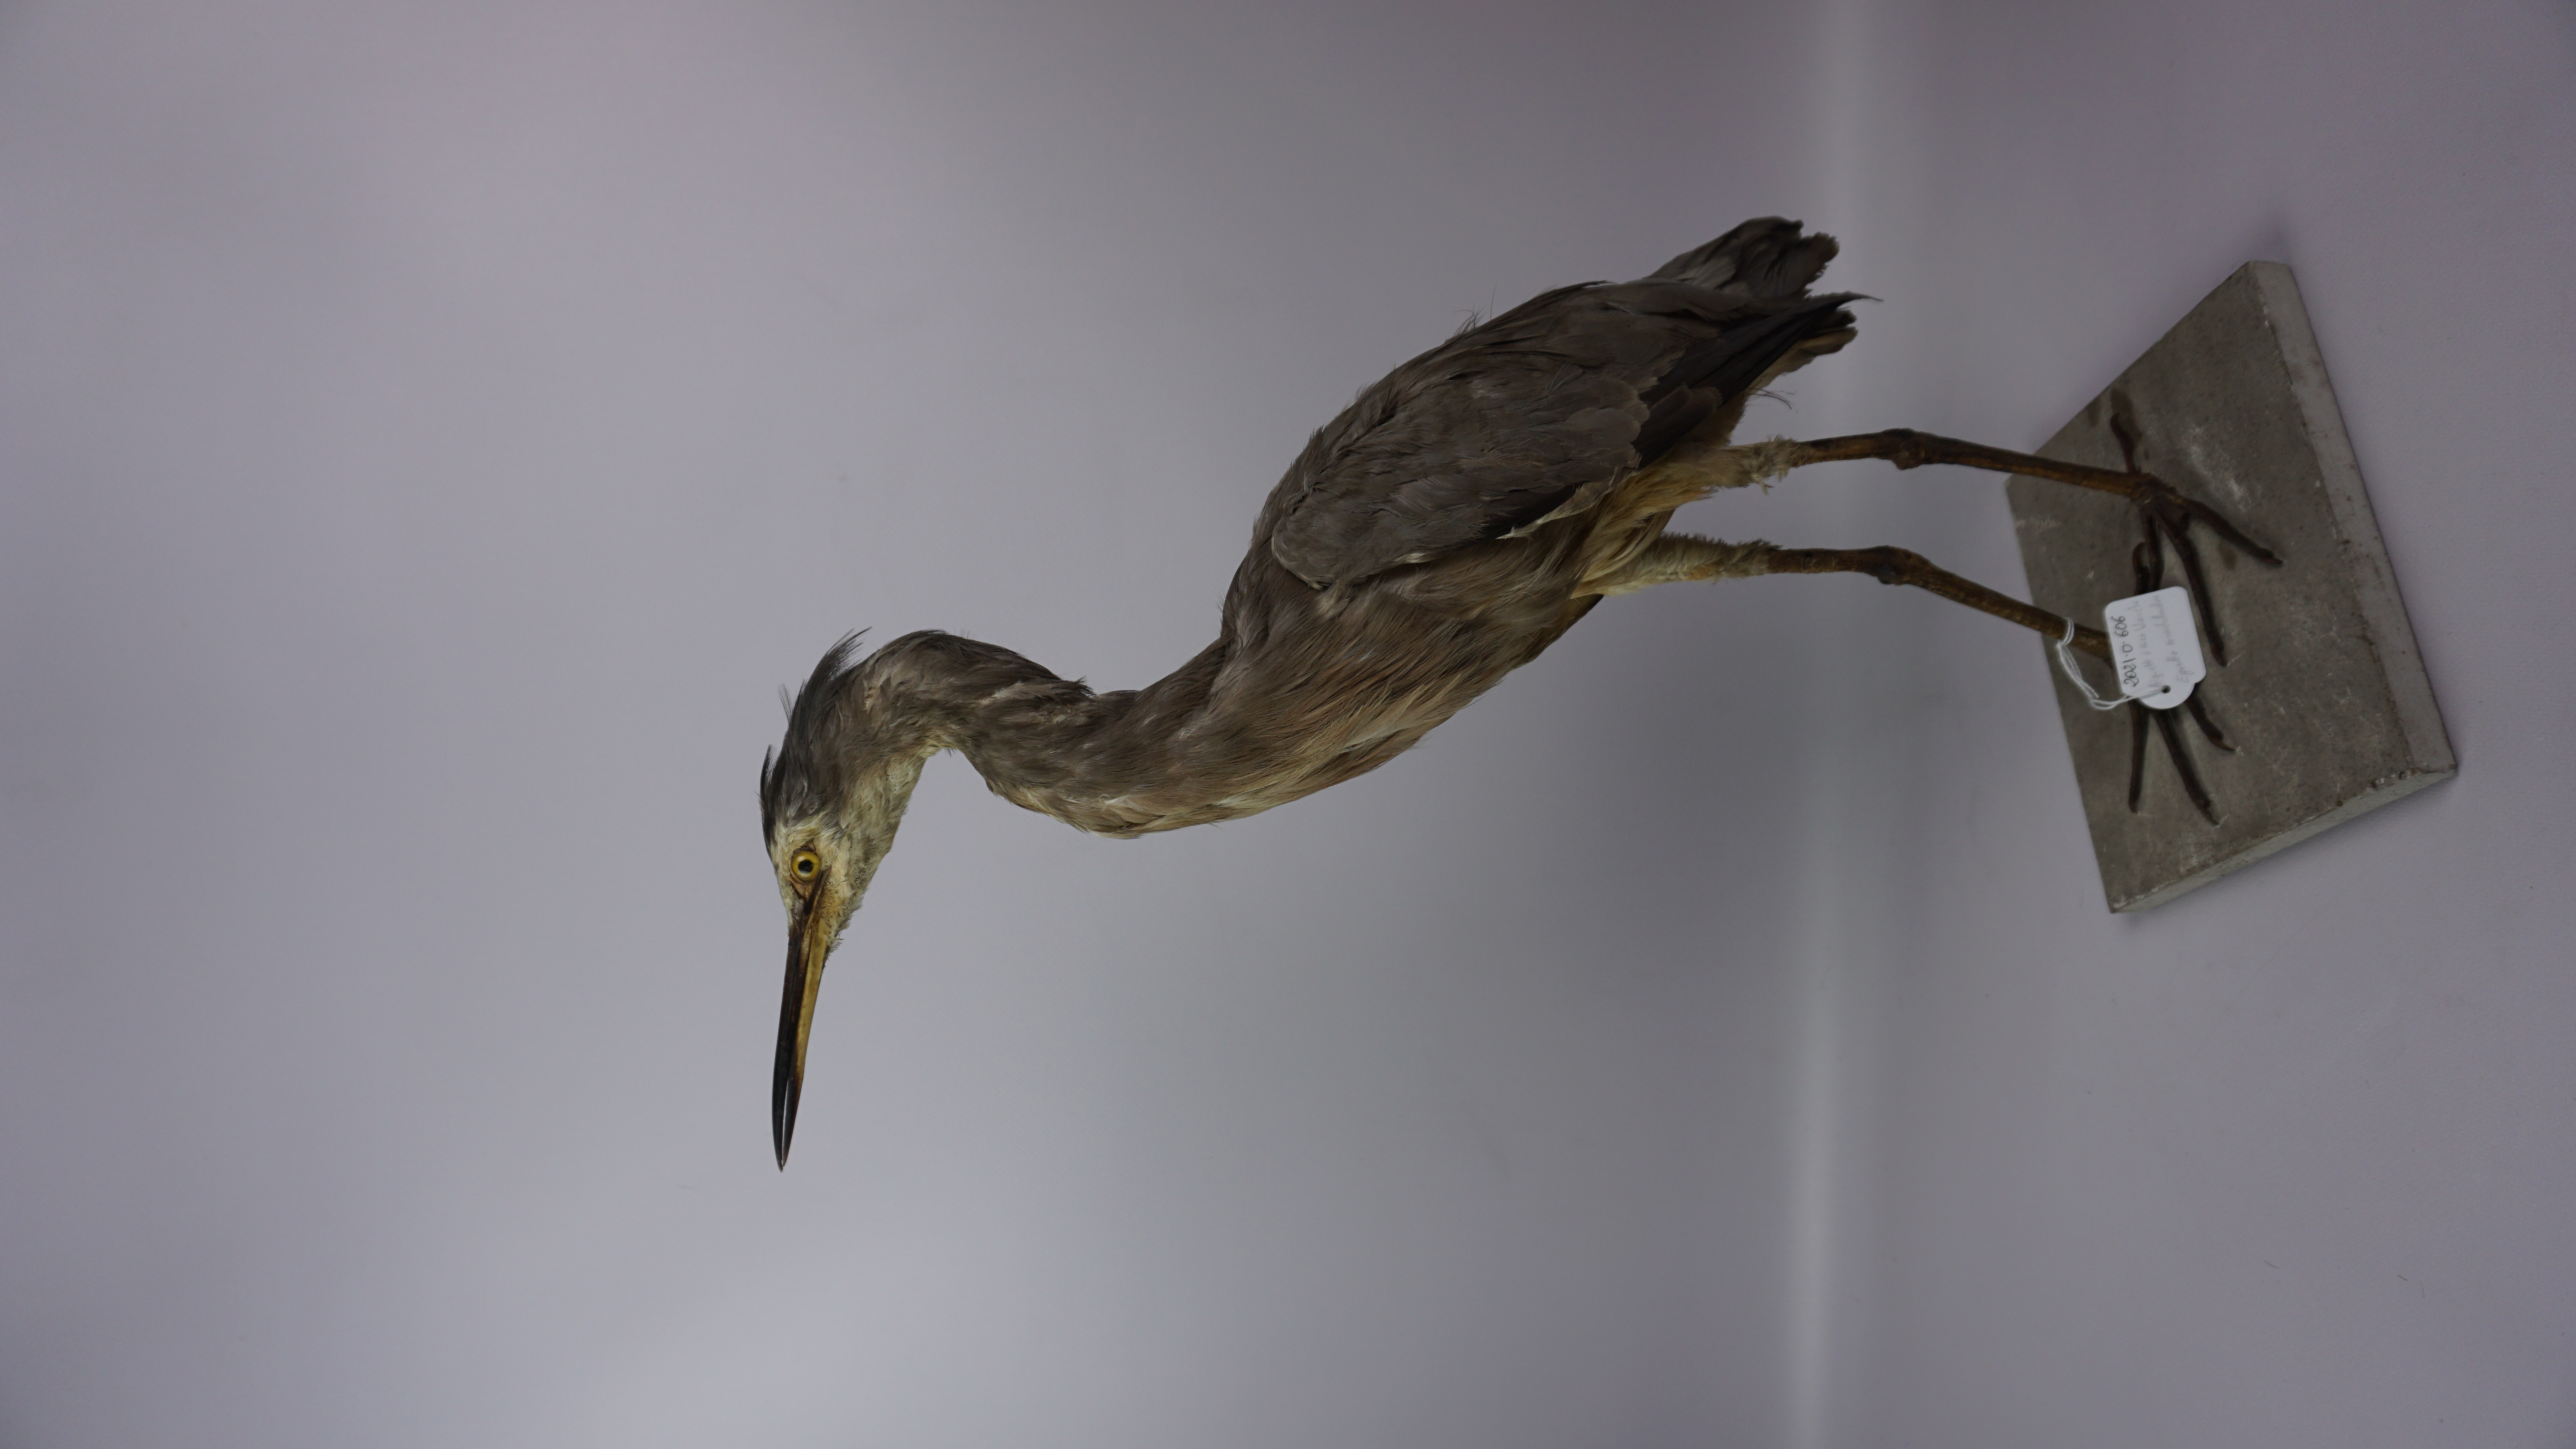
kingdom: Animalia
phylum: Chordata
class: Aves
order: Pelecaniformes
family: Ardeidae
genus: Egretta
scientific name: Egretta novaehollandiae
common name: White-faced heron
